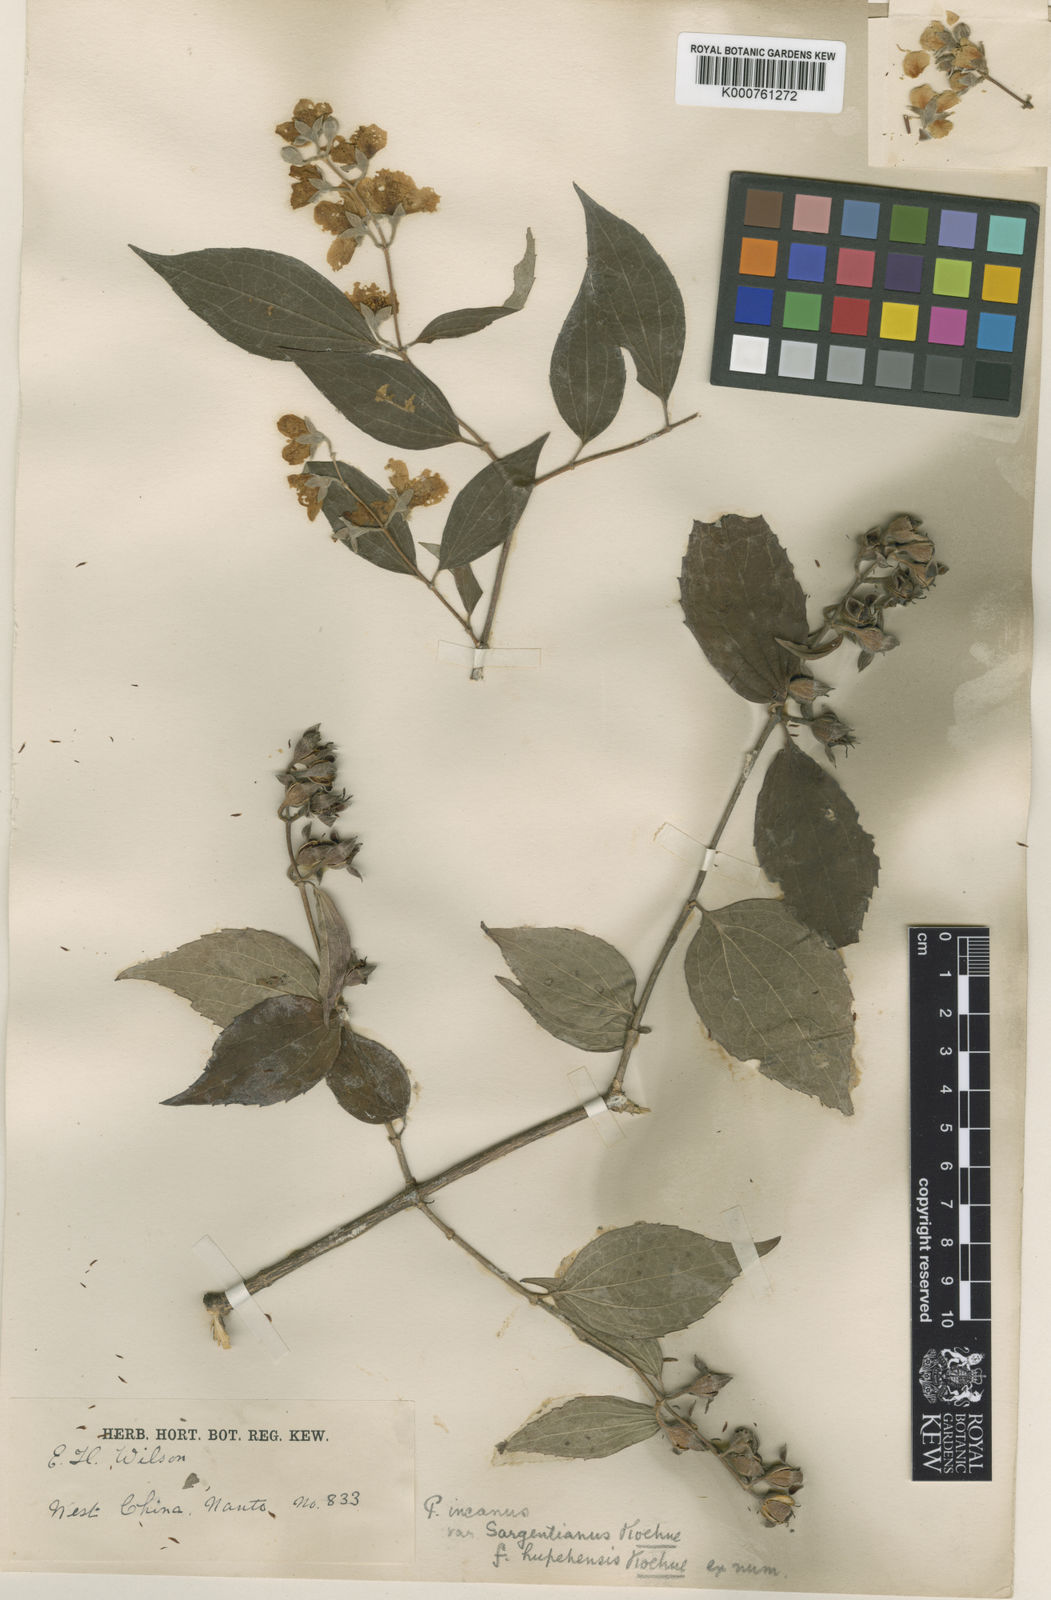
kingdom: Plantae
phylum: Tracheophyta
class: Magnoliopsida
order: Cornales
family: Hydrangeaceae
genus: Philadelphus
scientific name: Philadelphus
